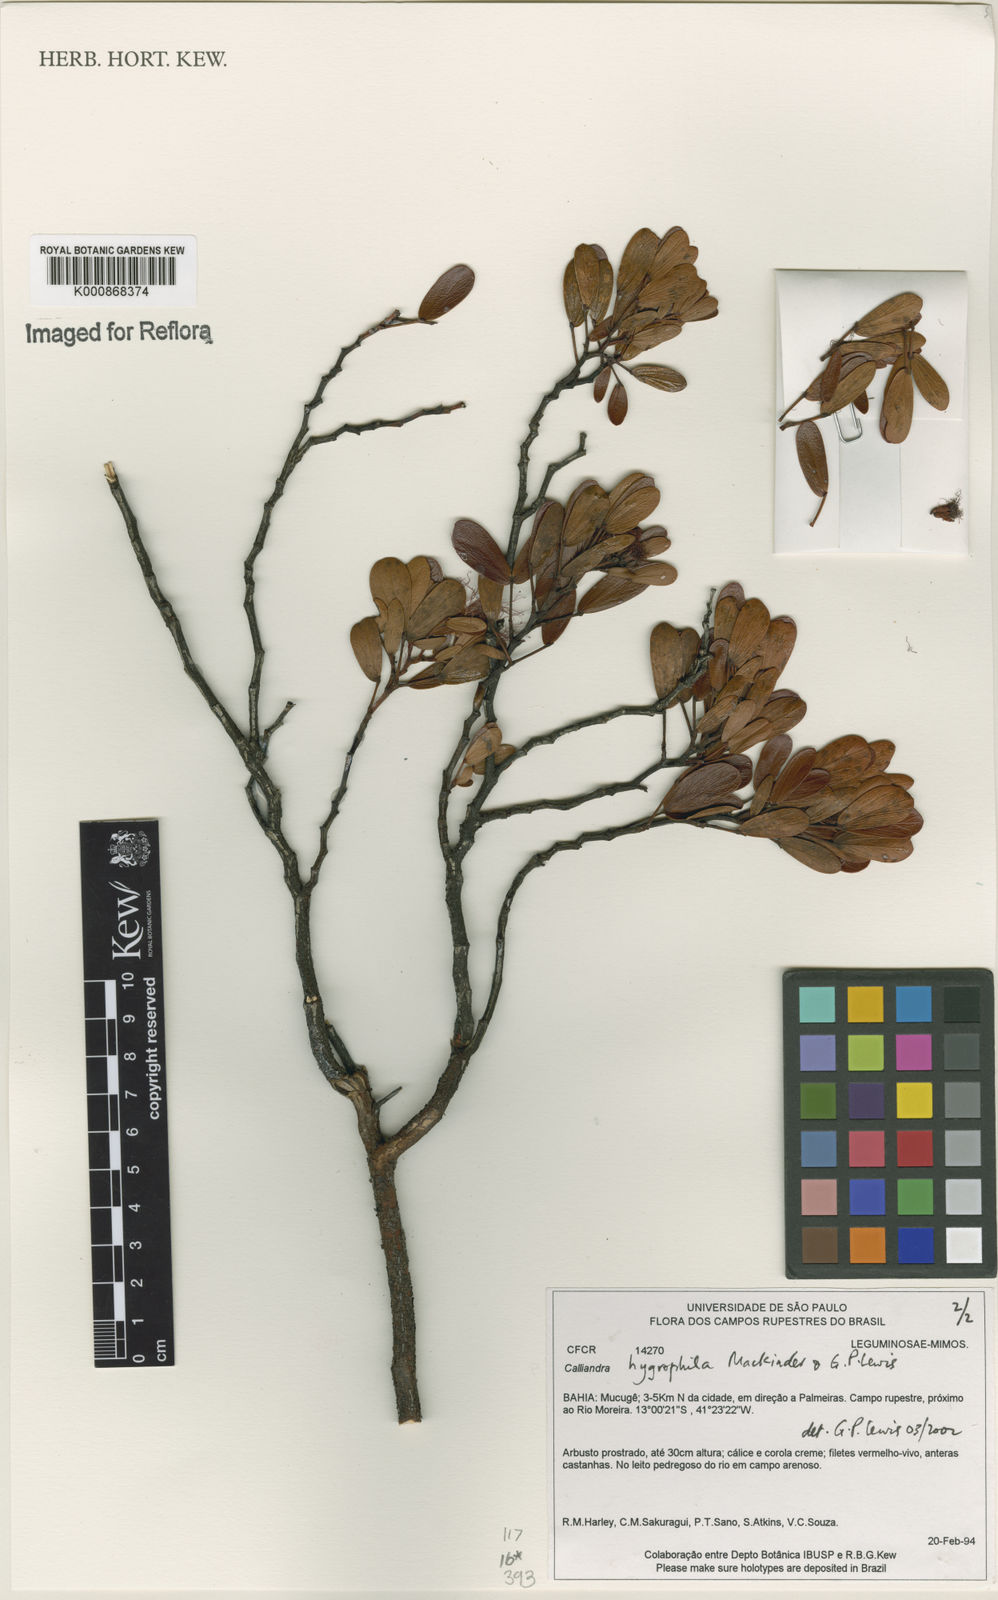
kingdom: Plantae
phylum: Tracheophyta
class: Magnoliopsida
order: Fabales
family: Fabaceae
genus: Calliandra
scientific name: Calliandra hygrophila
